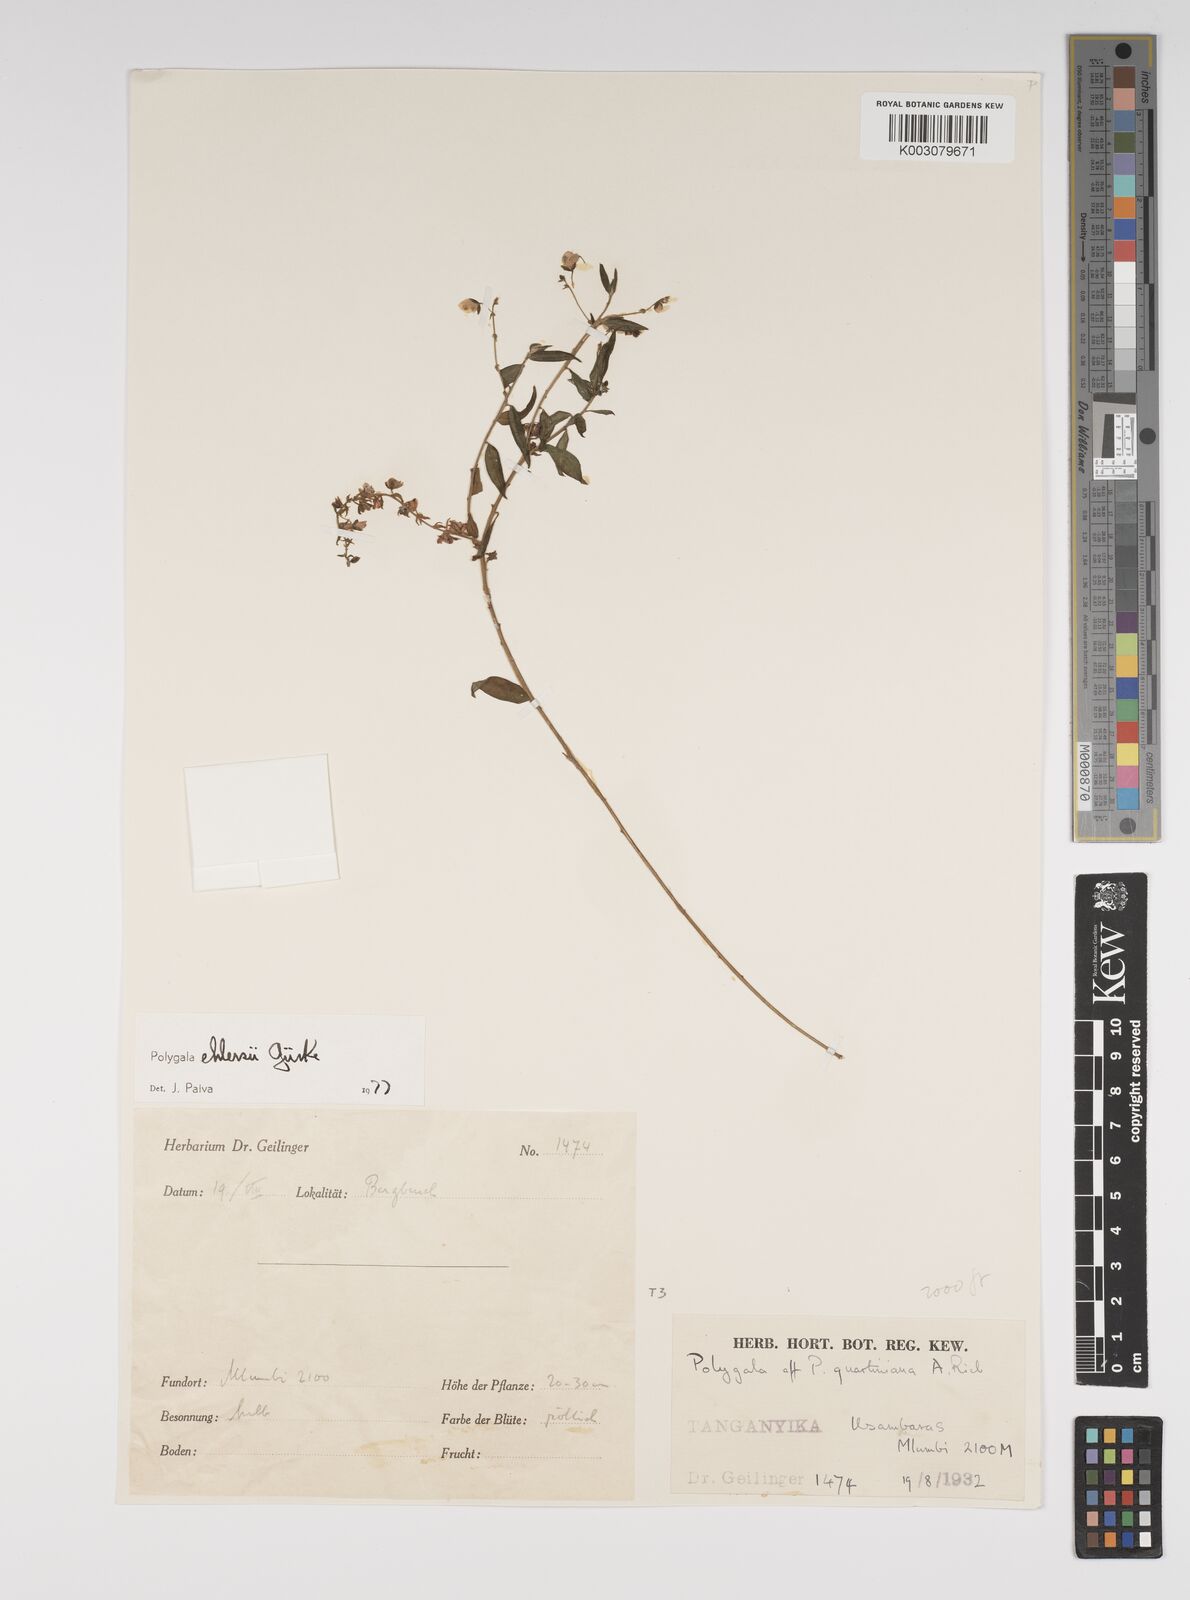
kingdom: Plantae
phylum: Tracheophyta
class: Magnoliopsida
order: Fabales
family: Polygalaceae
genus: Polygala
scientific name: Polygala ehlersii
